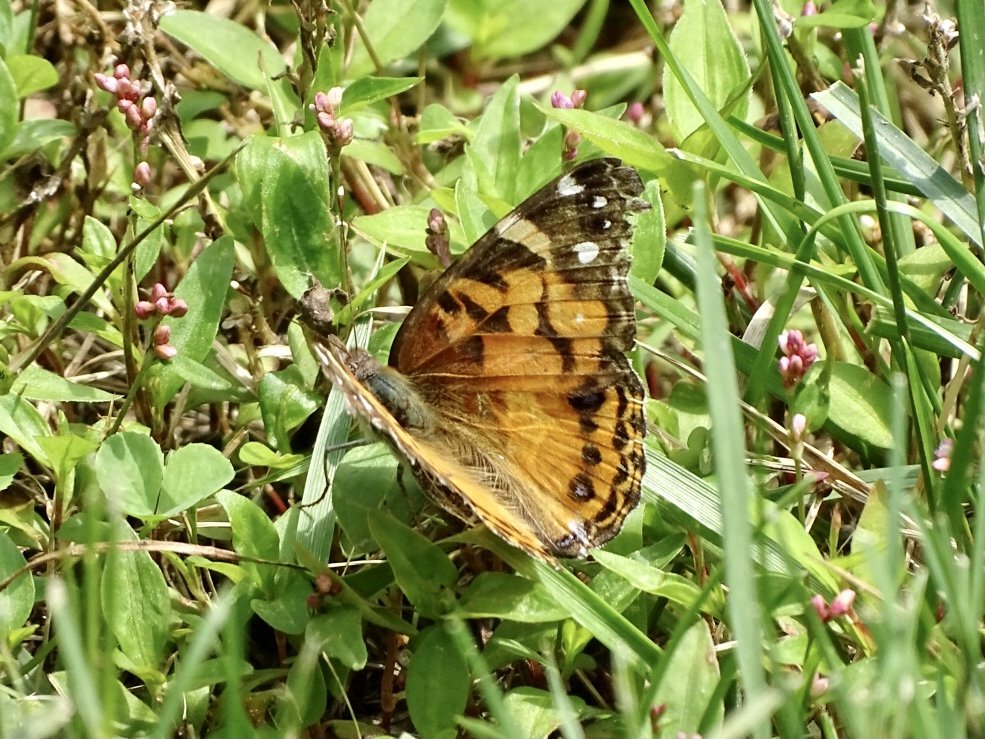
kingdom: Animalia
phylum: Arthropoda
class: Insecta
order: Lepidoptera
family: Nymphalidae
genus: Vanessa
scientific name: Vanessa virginiensis
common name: American Lady
